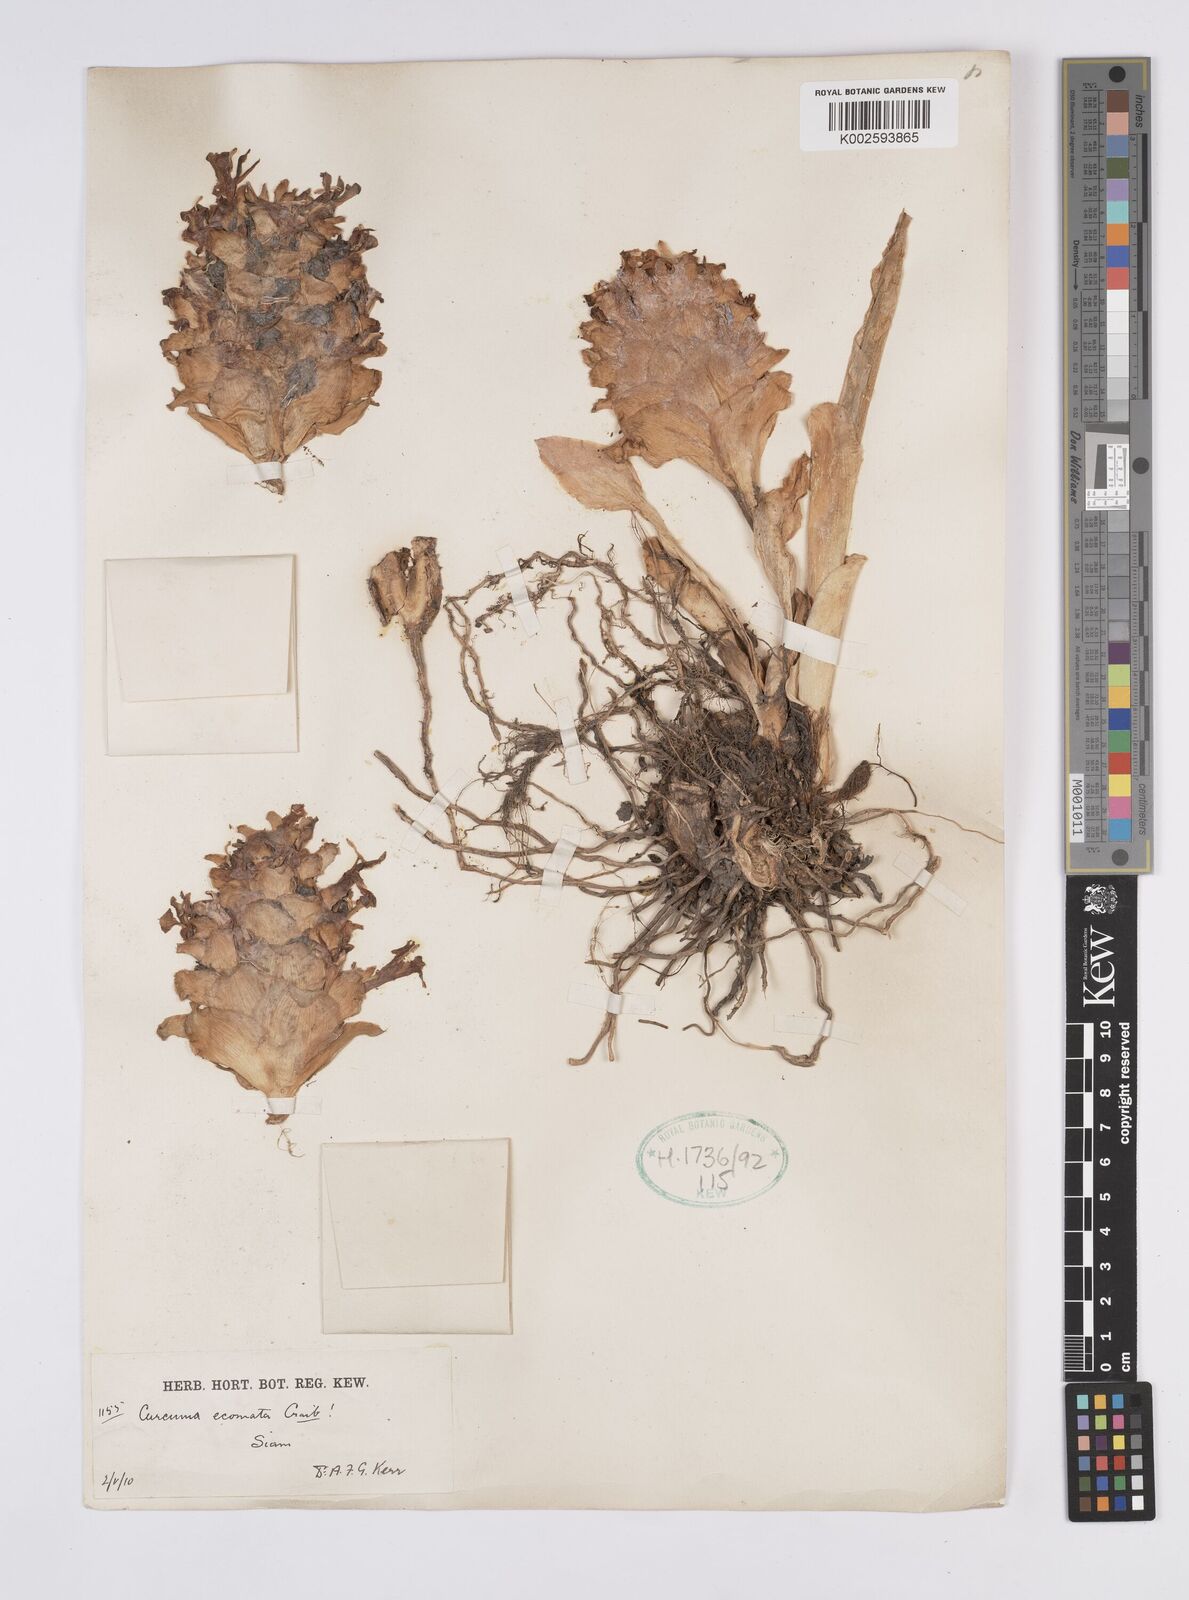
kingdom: Plantae
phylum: Tracheophyta
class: Liliopsida
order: Zingiberales
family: Zingiberaceae
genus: Curcuma
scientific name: Curcuma colorata
